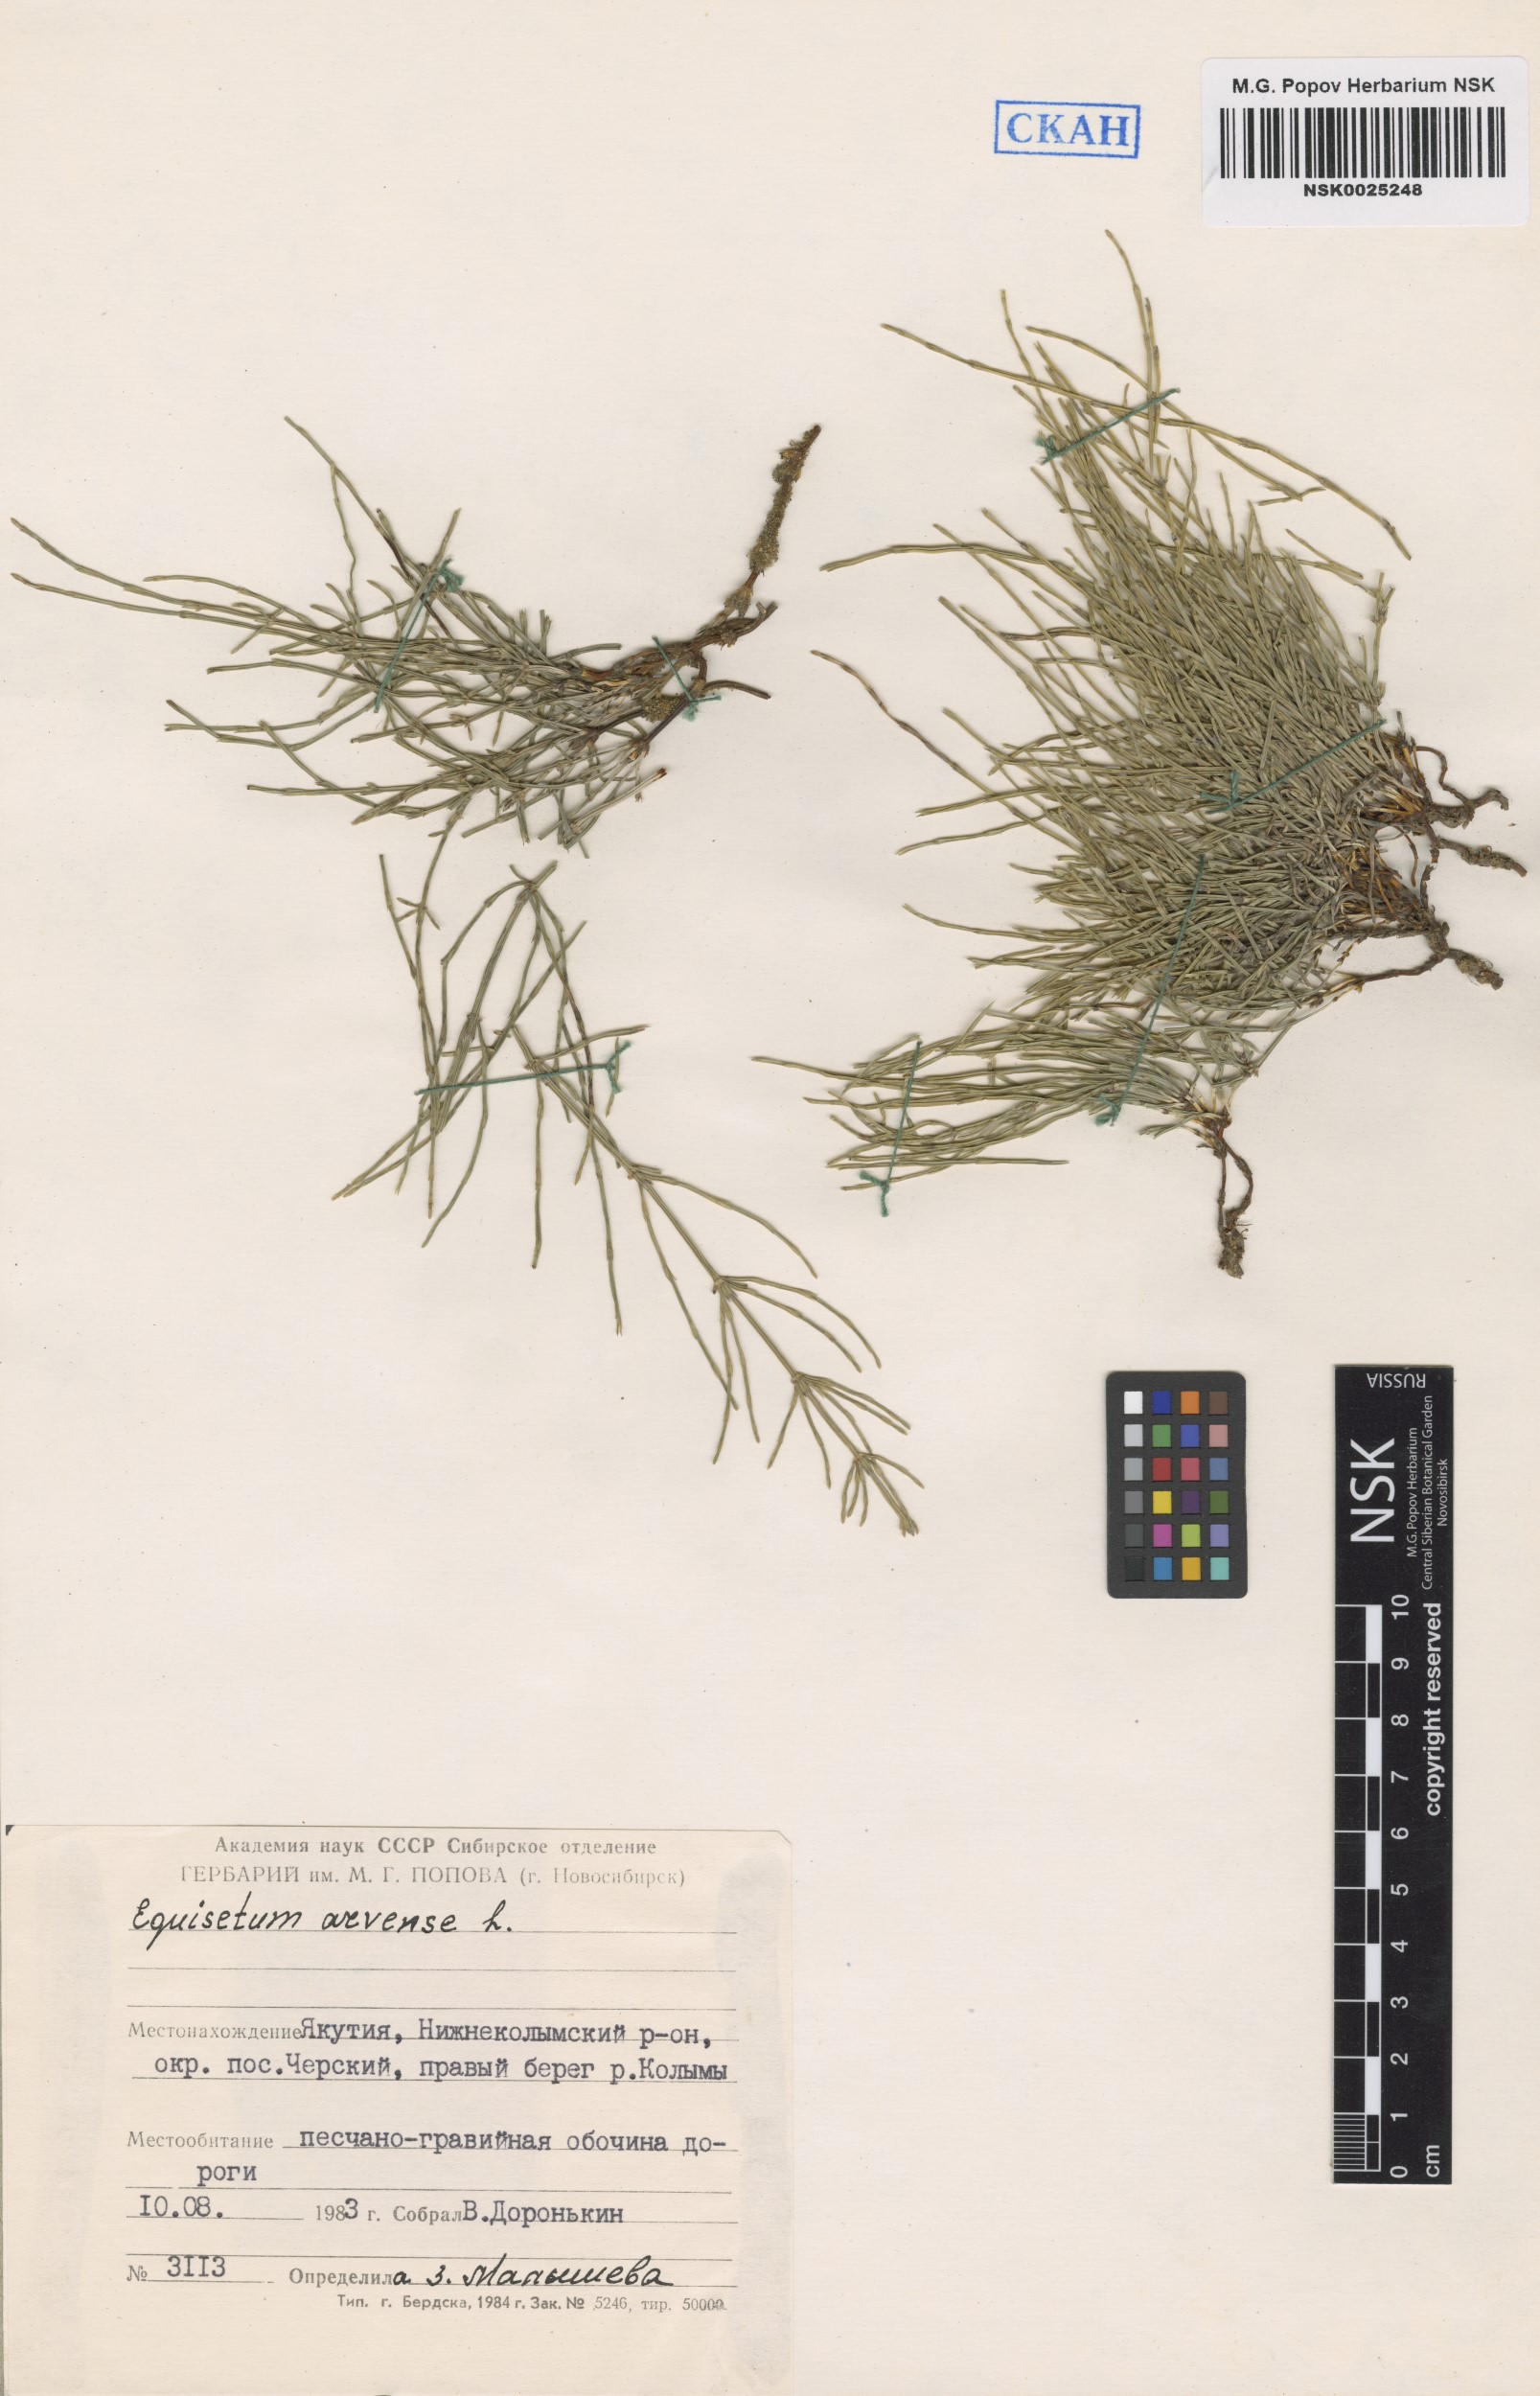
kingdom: Plantae
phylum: Tracheophyta
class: Polypodiopsida
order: Equisetales
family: Equisetaceae
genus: Equisetum
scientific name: Equisetum arvense
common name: Field horsetail
